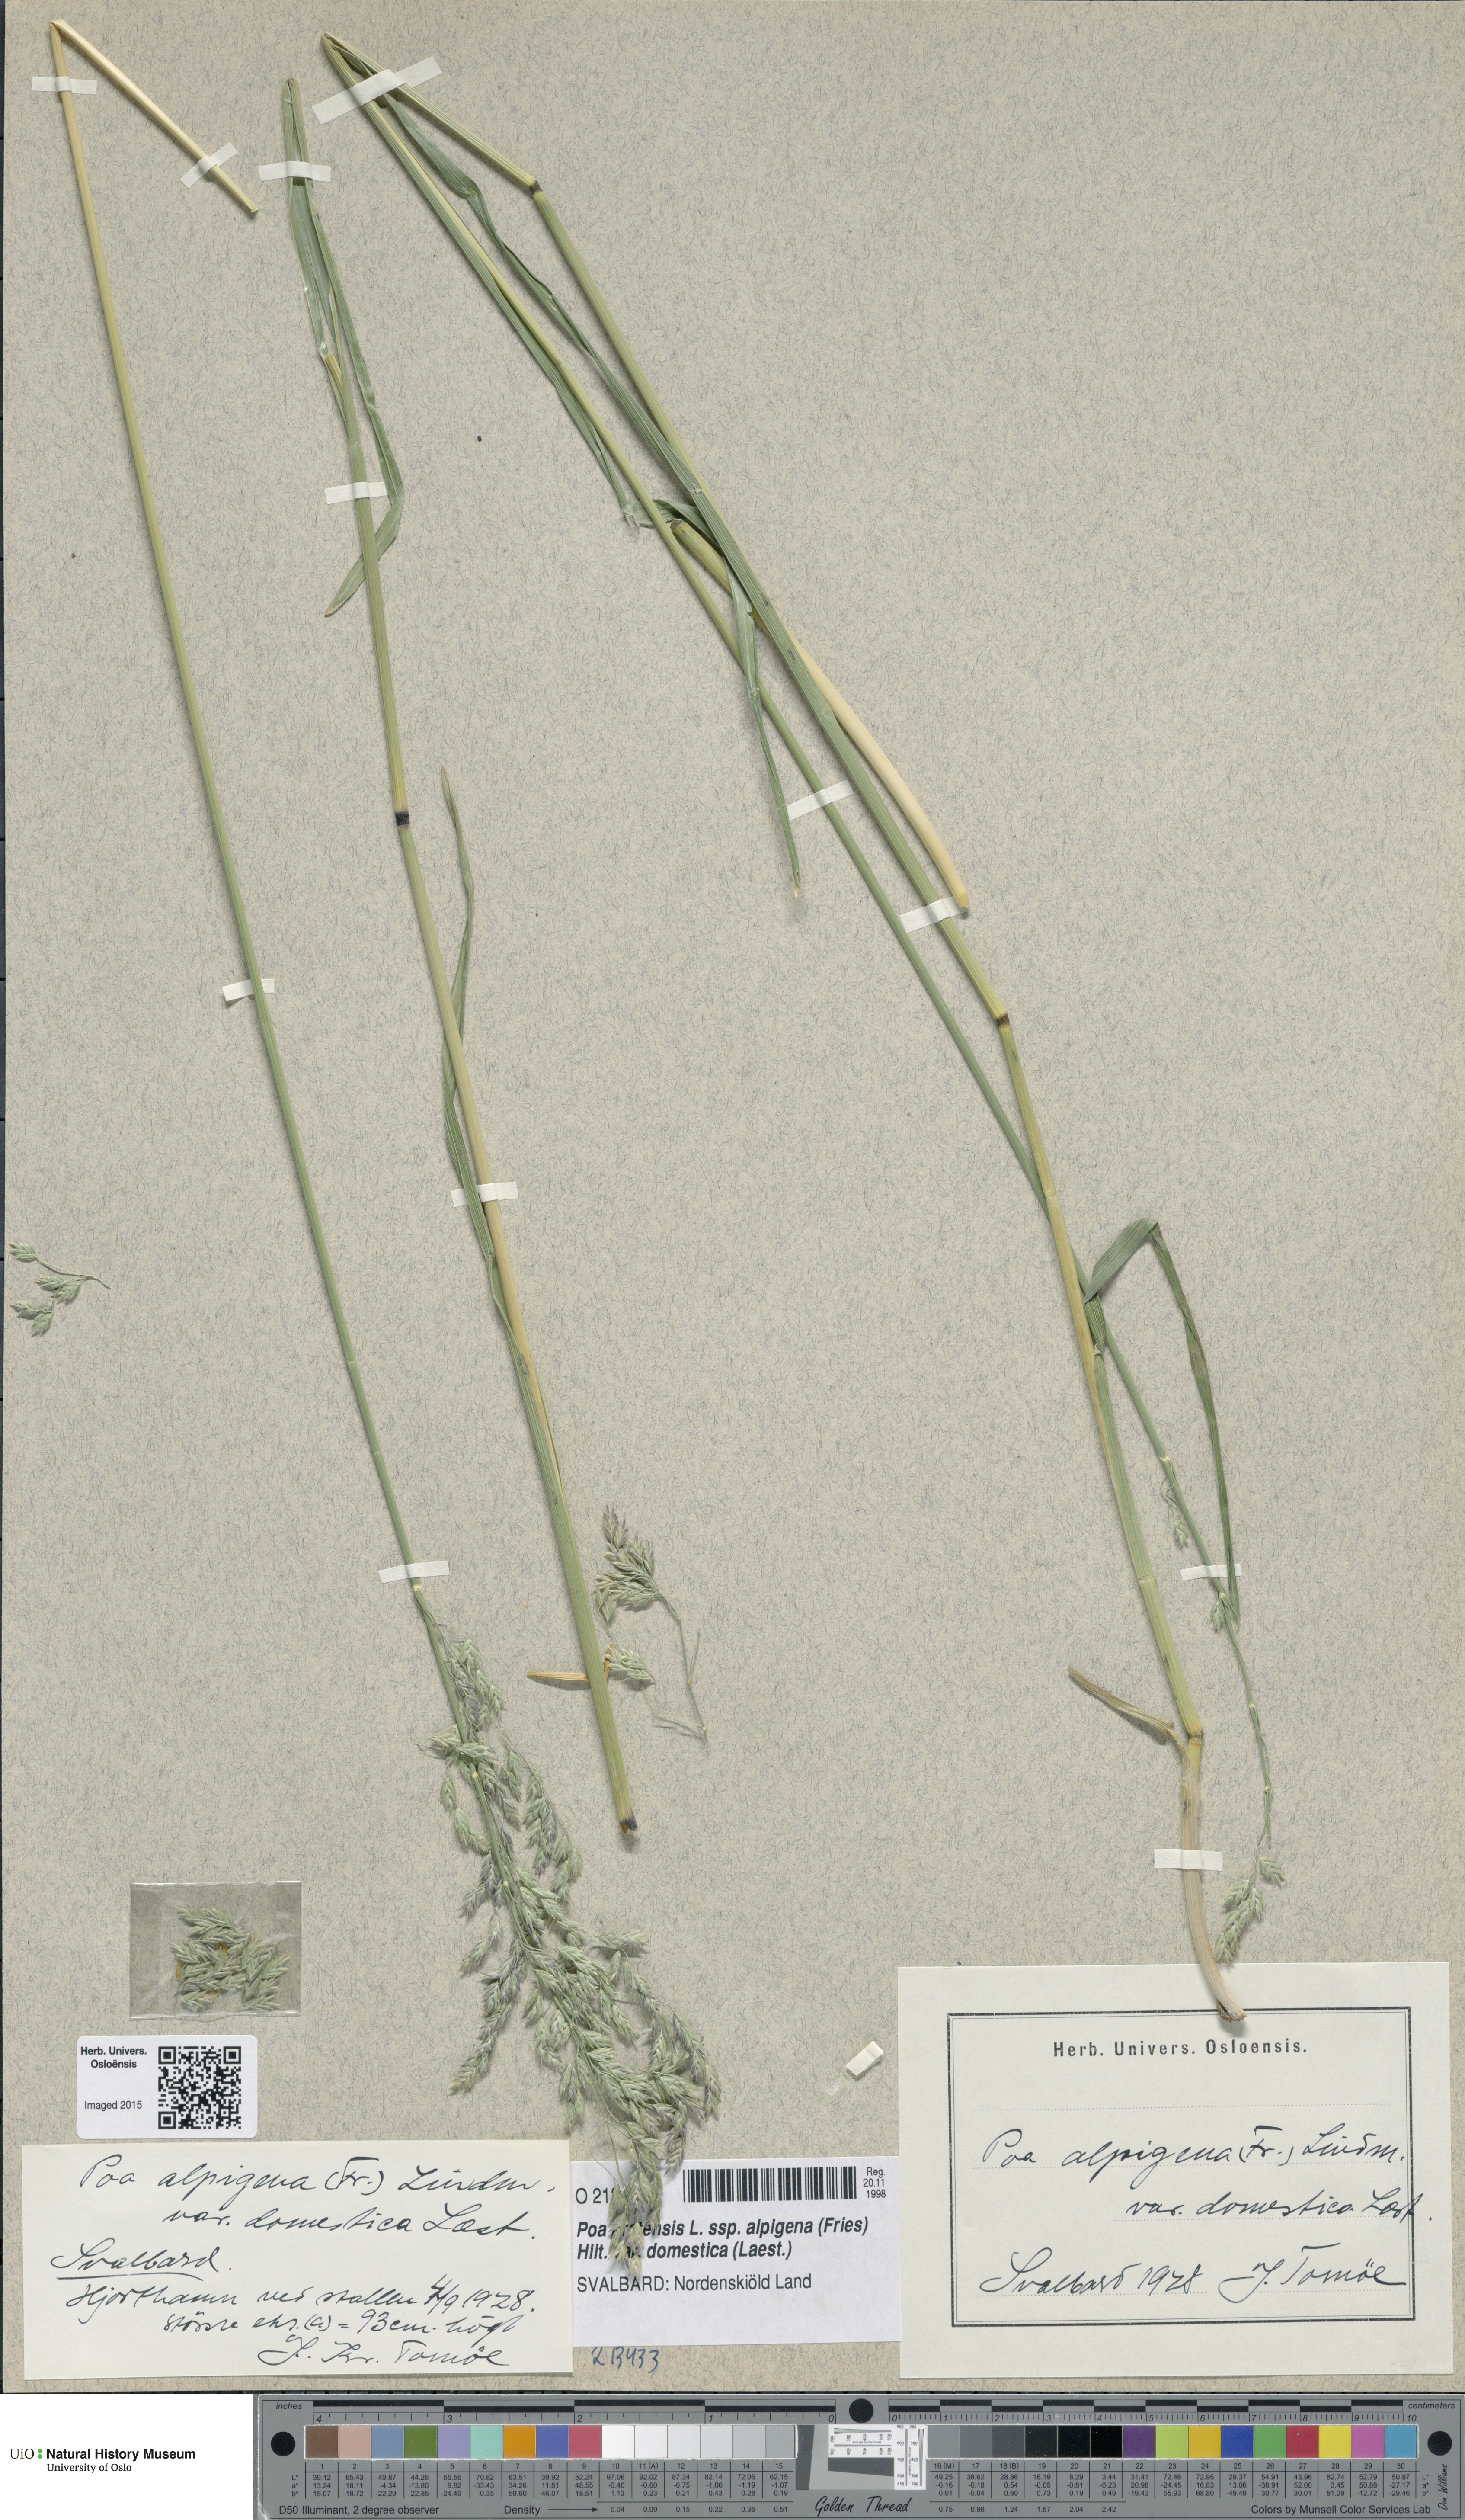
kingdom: Plantae
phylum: Tracheophyta
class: Liliopsida
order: Poales
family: Poaceae
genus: Poa
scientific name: Poa pratensis
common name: Kentucky bluegrass
